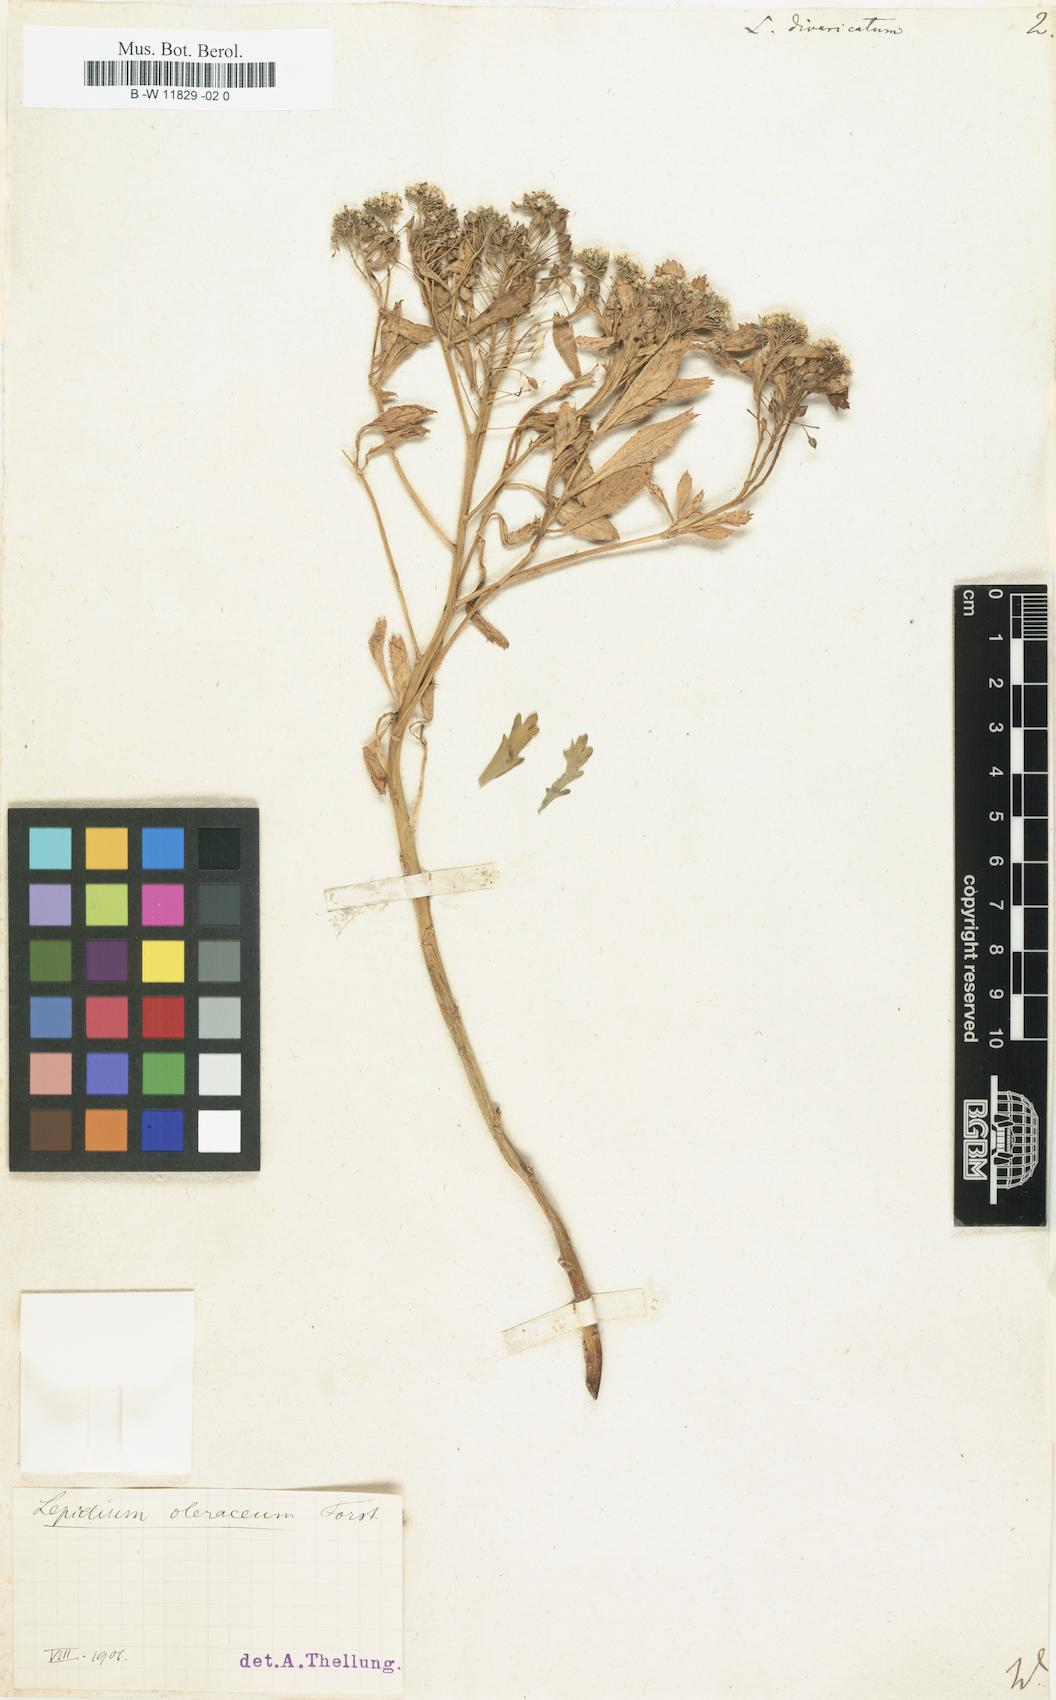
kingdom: Plantae
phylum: Tracheophyta
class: Magnoliopsida
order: Brassicales
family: Brassicaceae
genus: Lepidium
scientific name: Lepidium divaricatum
